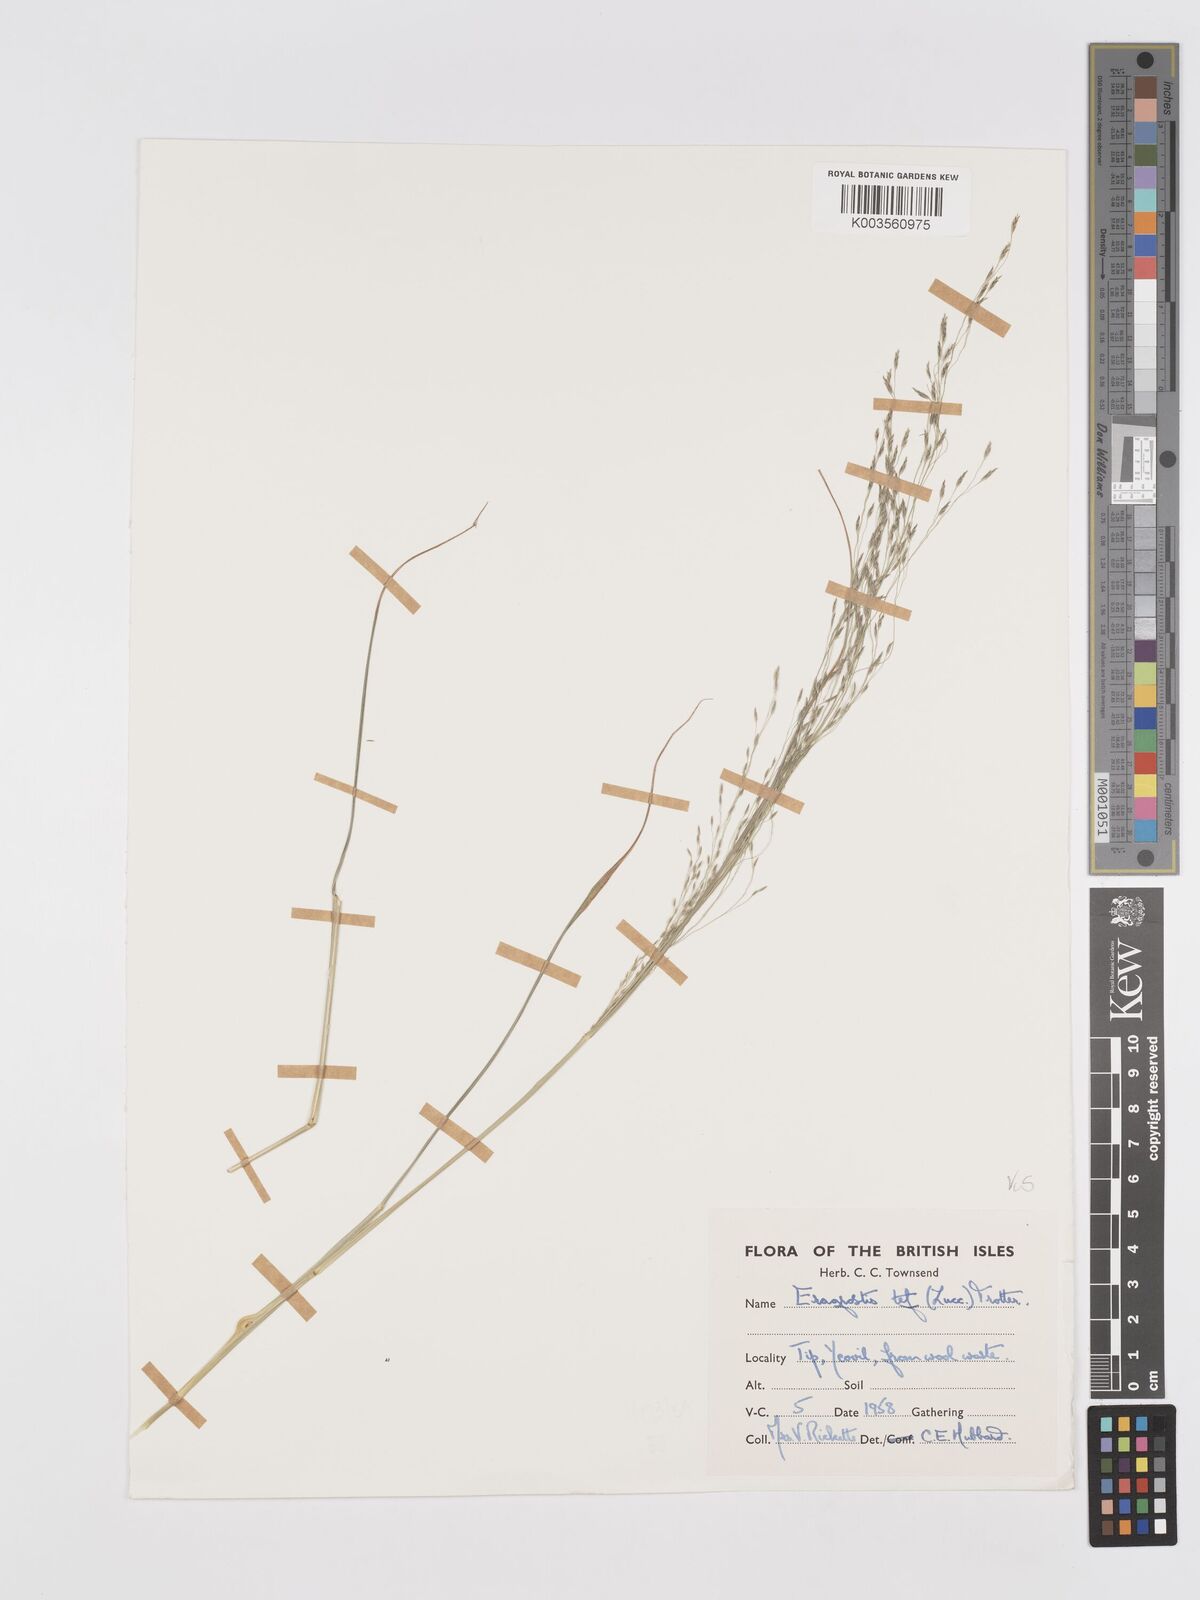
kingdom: Plantae
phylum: Tracheophyta
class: Liliopsida
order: Poales
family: Poaceae
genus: Eragrostis
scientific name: Eragrostis tef
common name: Teff
